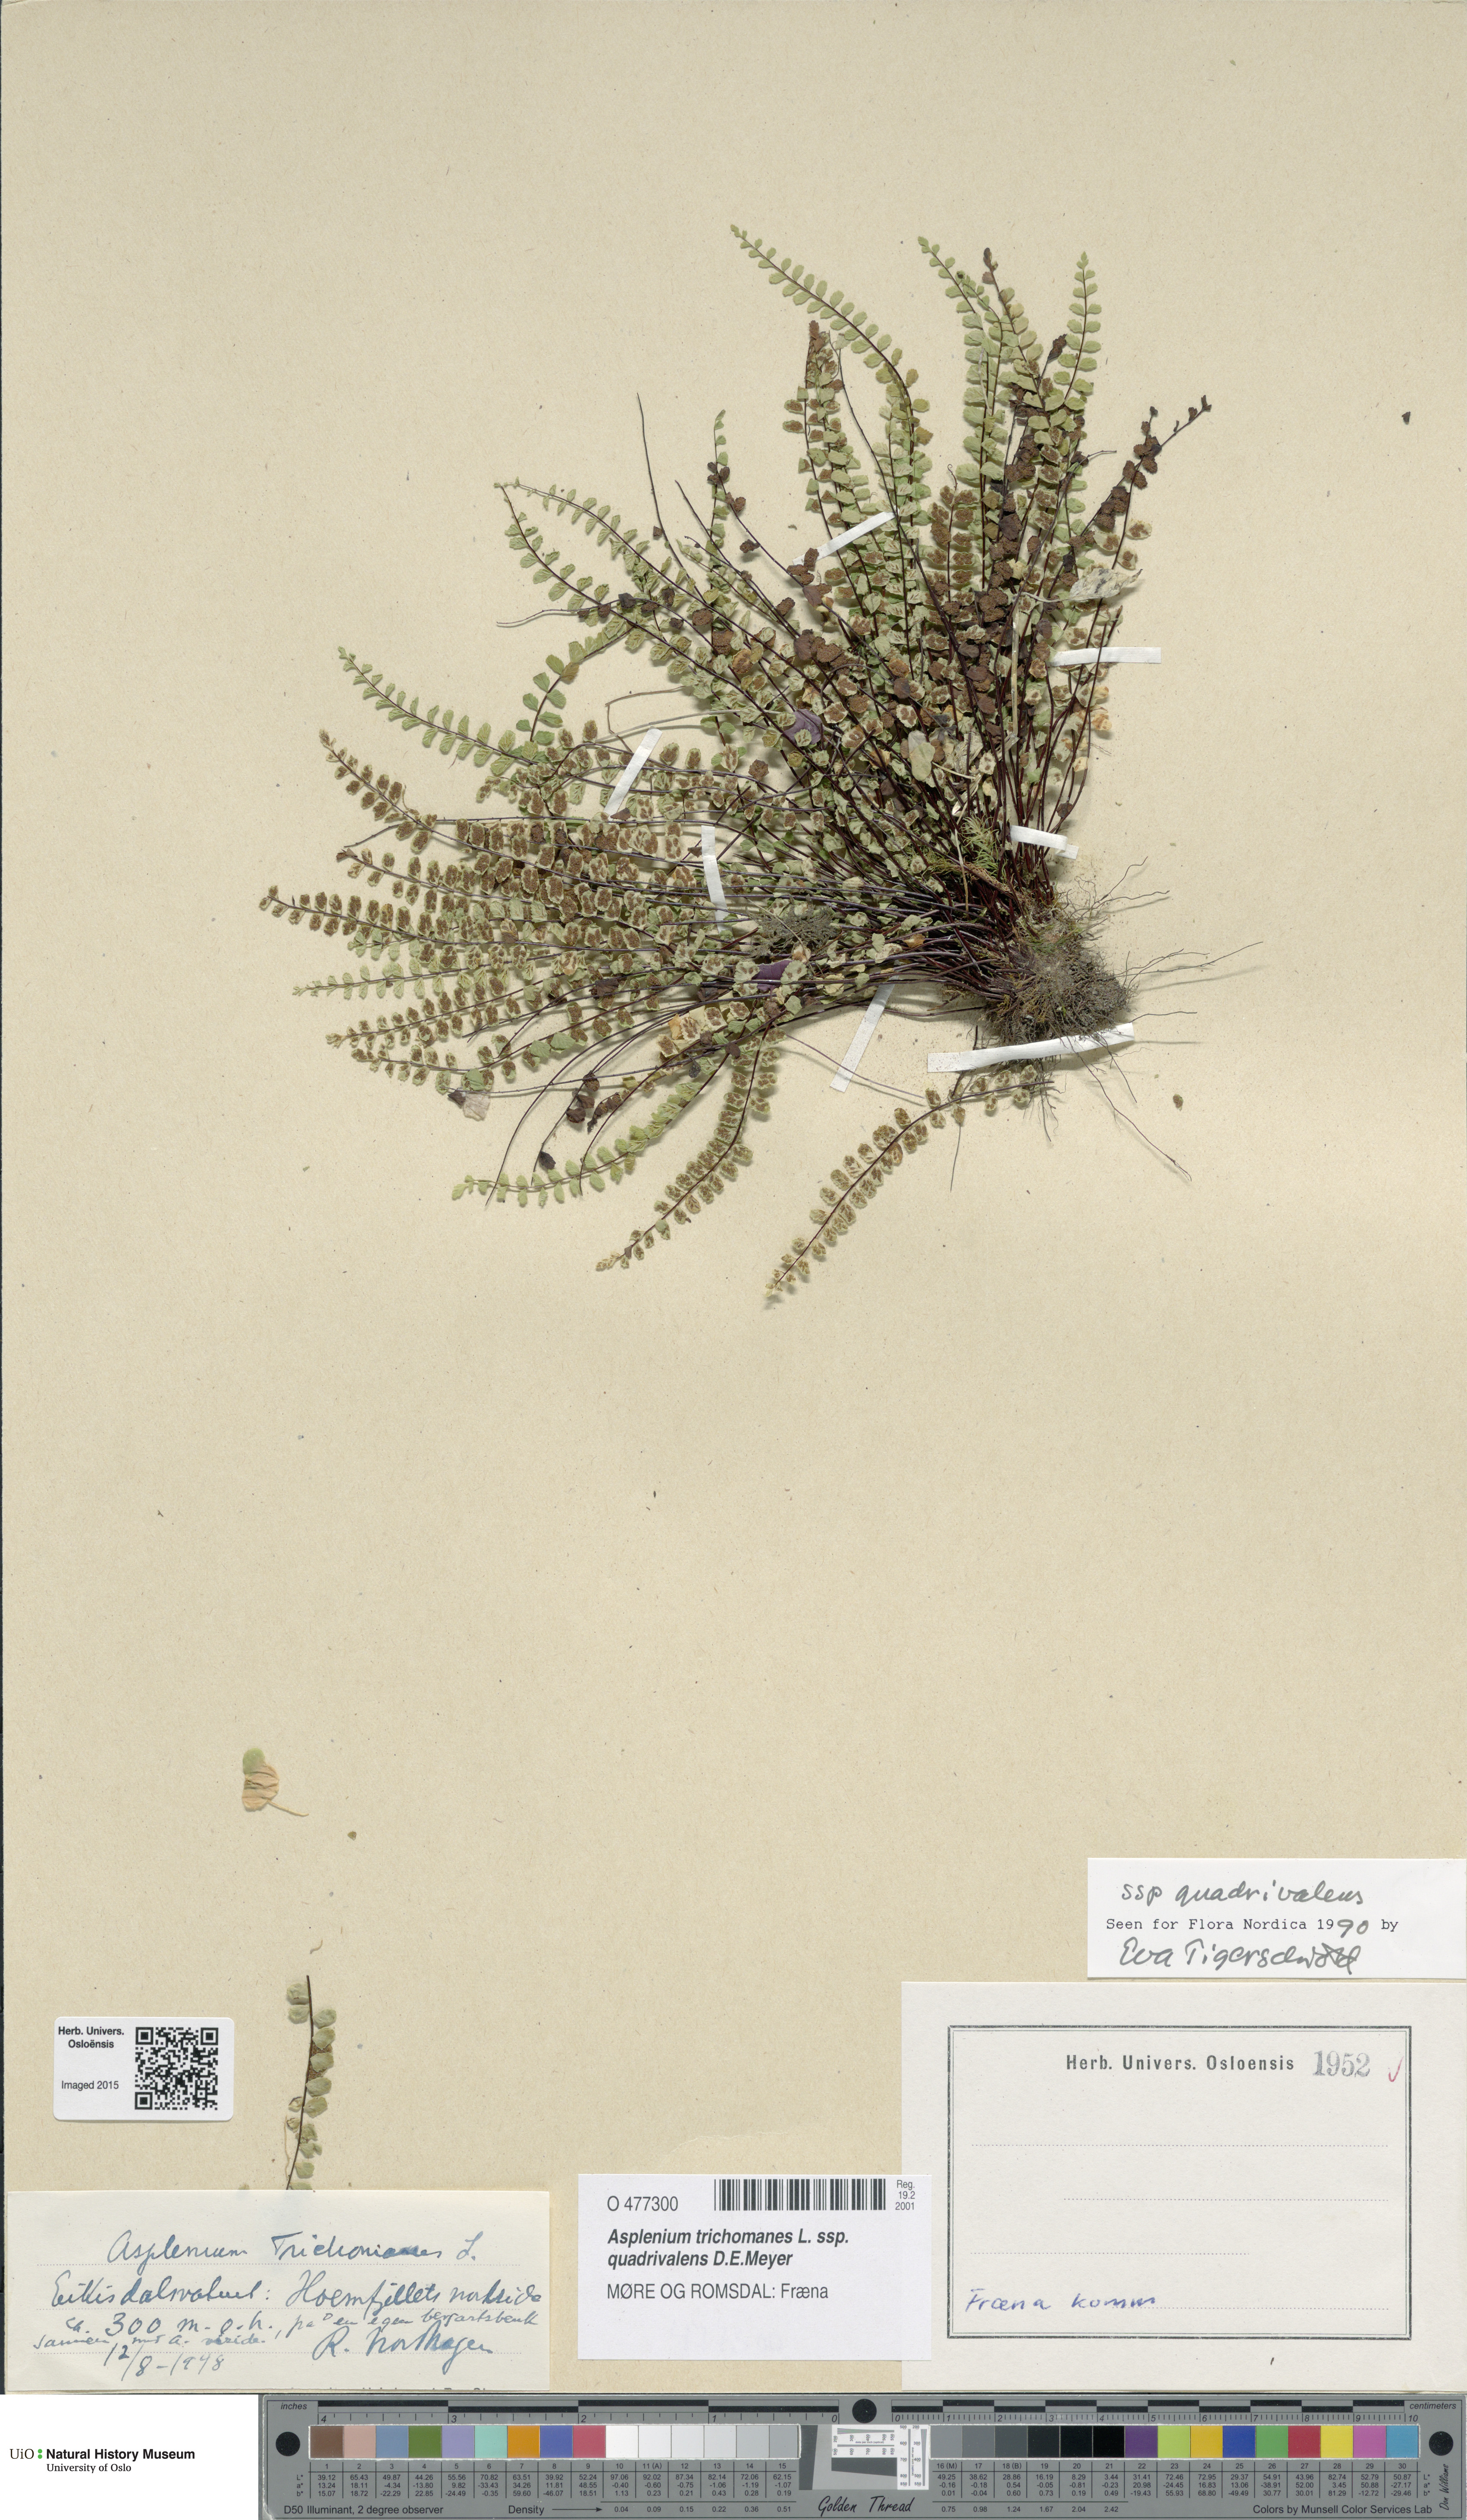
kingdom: Plantae
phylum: Tracheophyta
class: Polypodiopsida
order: Polypodiales
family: Aspleniaceae
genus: Asplenium
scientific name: Asplenium quadrivalens
